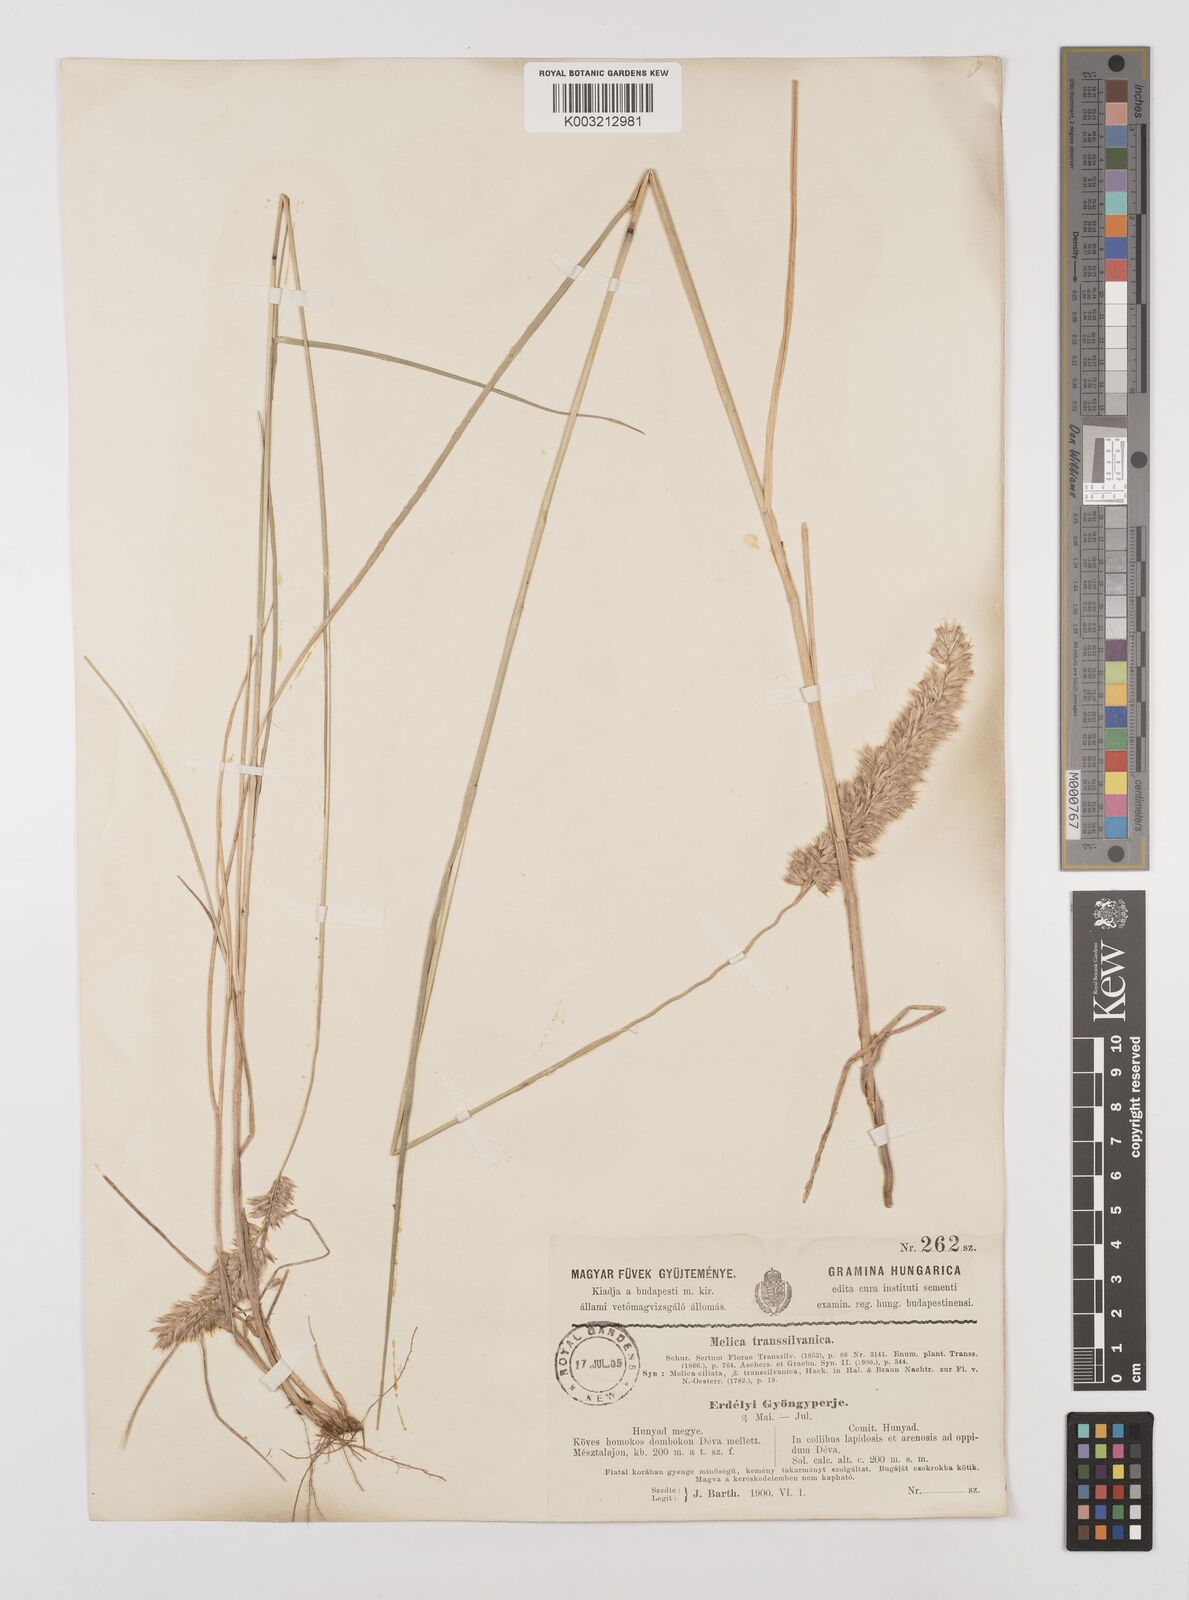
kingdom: Plantae
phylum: Tracheophyta
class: Liliopsida
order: Poales
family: Poaceae
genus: Melica
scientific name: Melica transsilvanica
